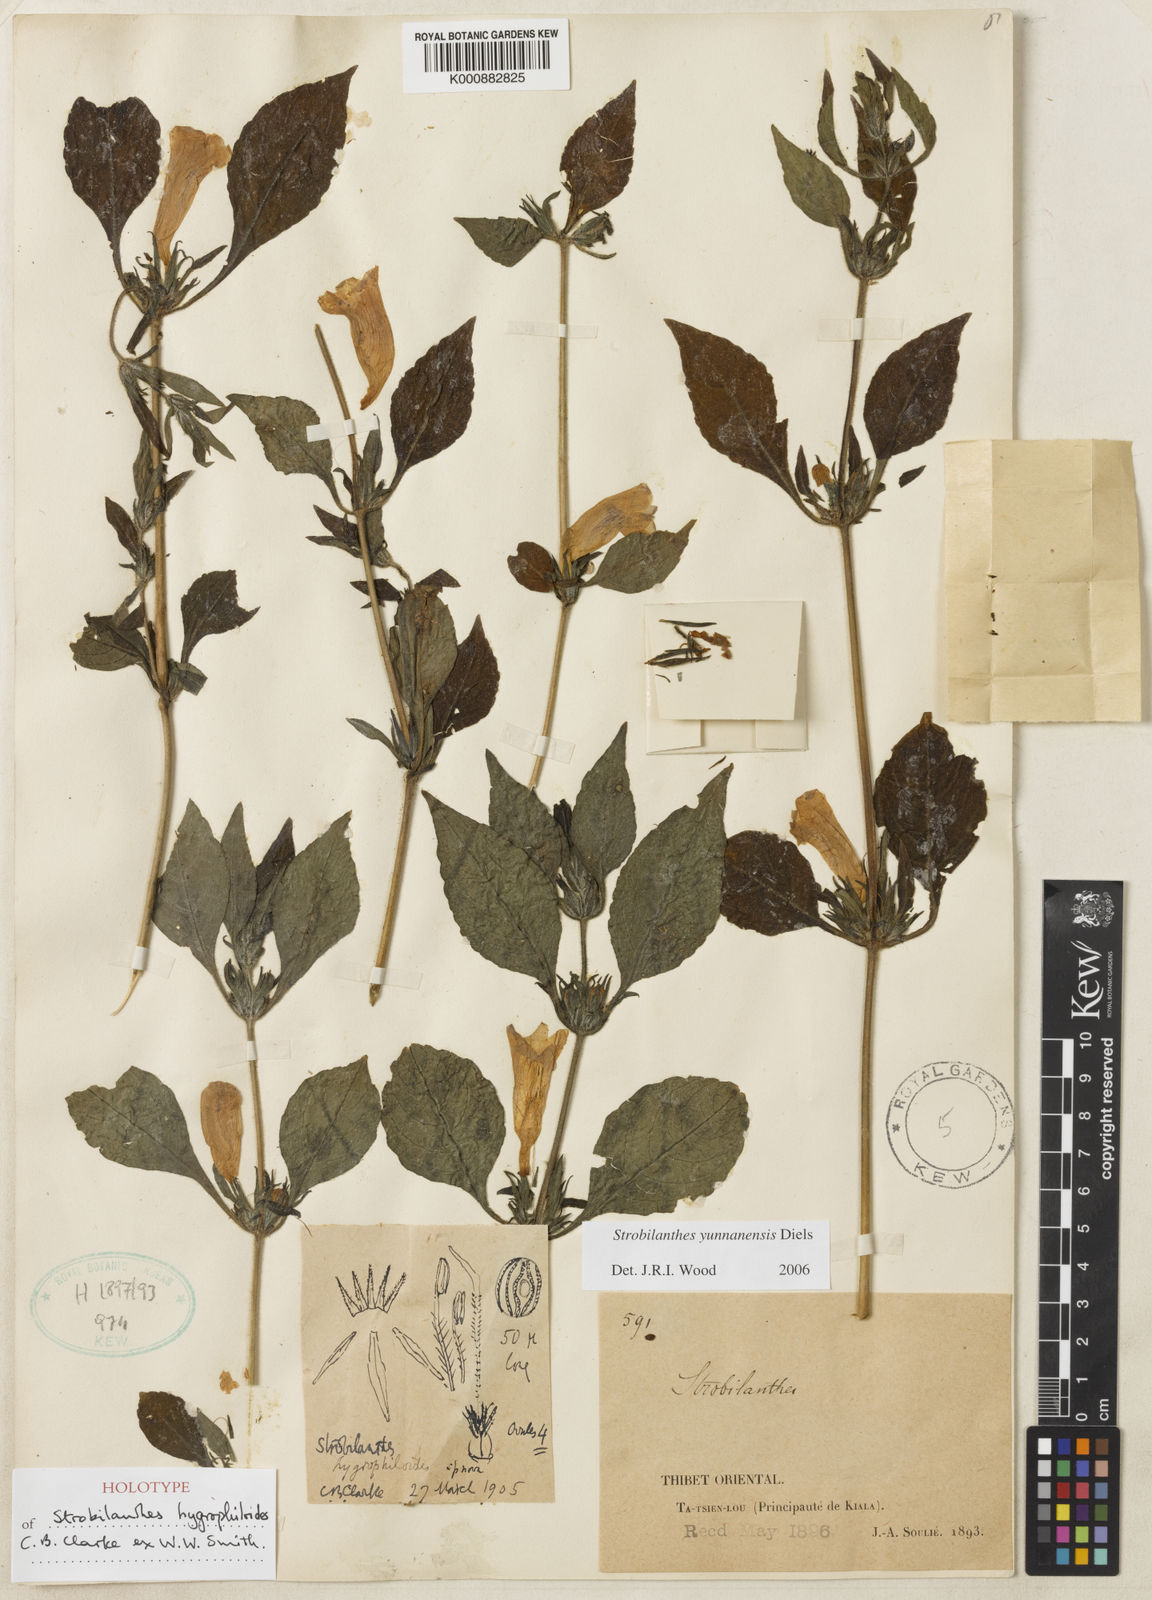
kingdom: Plantae
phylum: Tracheophyta
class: Magnoliopsida
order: Lamiales
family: Acanthaceae
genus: Strobilanthes
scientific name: Strobilanthes yunnanensis
